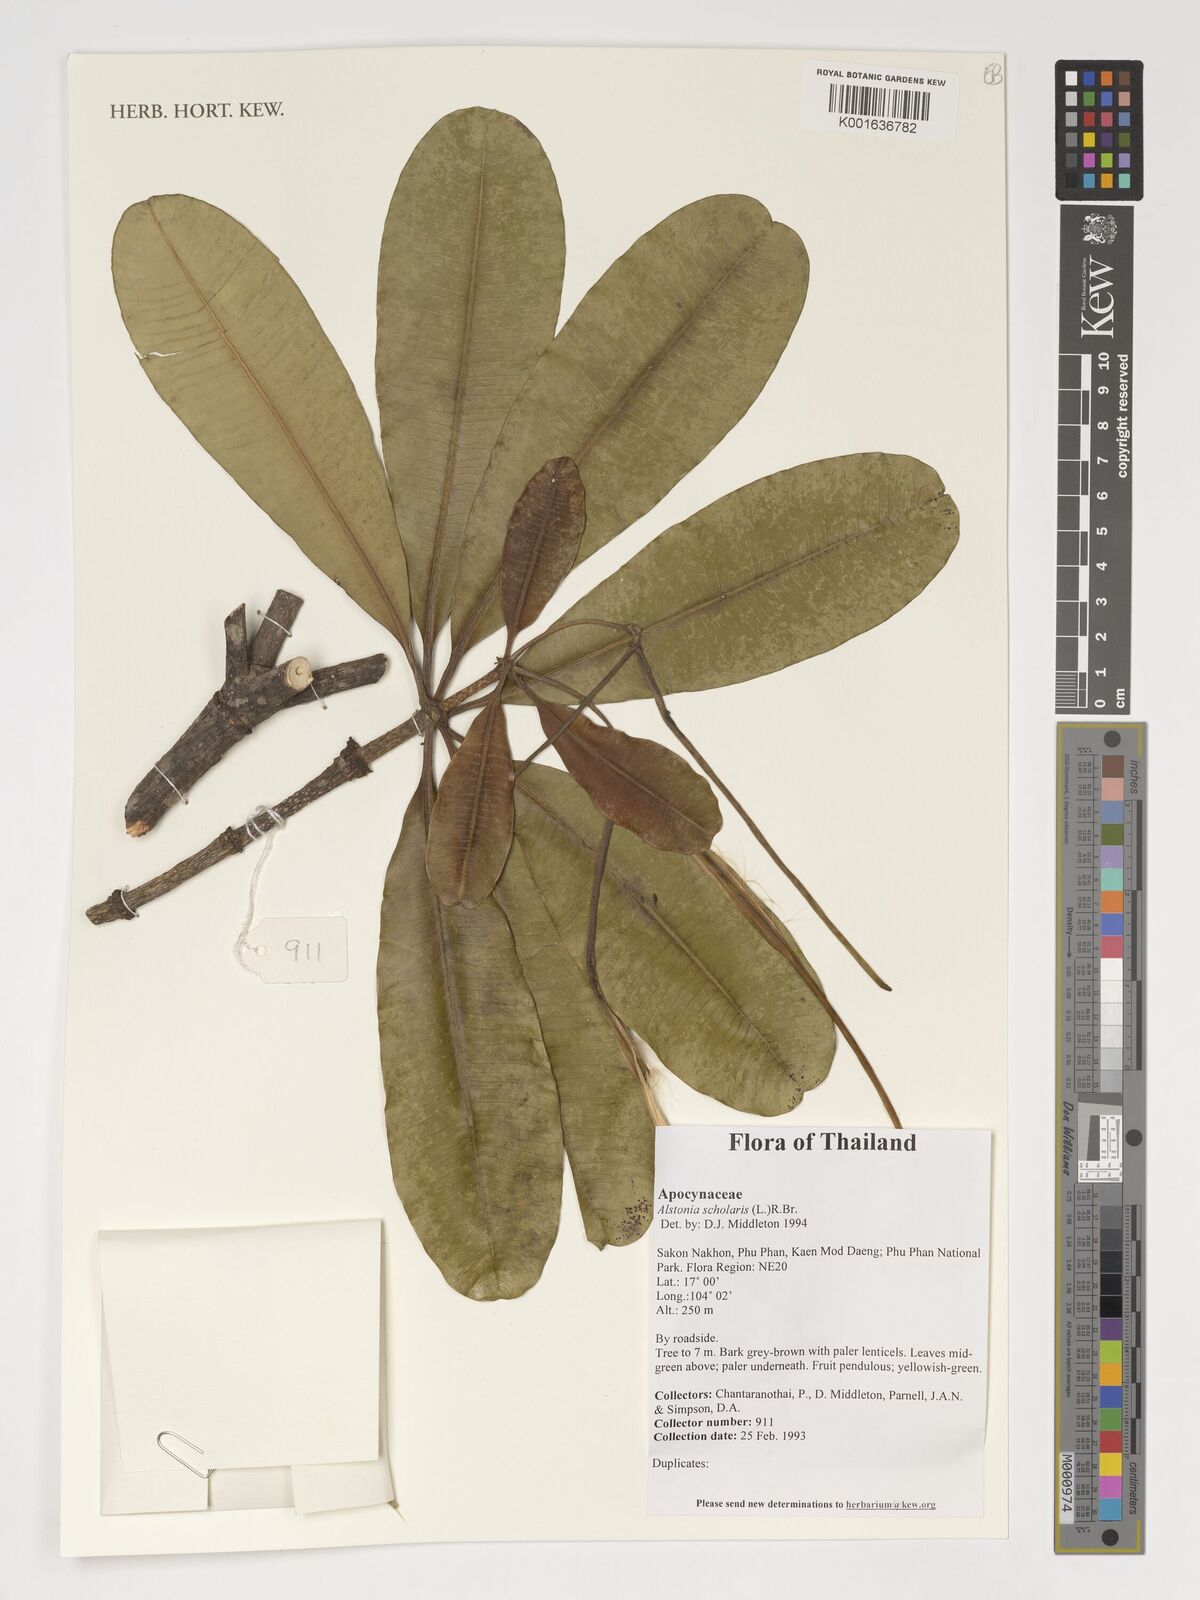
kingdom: Plantae
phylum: Tracheophyta
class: Magnoliopsida
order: Gentianales
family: Apocynaceae
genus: Alstonia
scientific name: Alstonia scholaris
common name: White cheesewood
